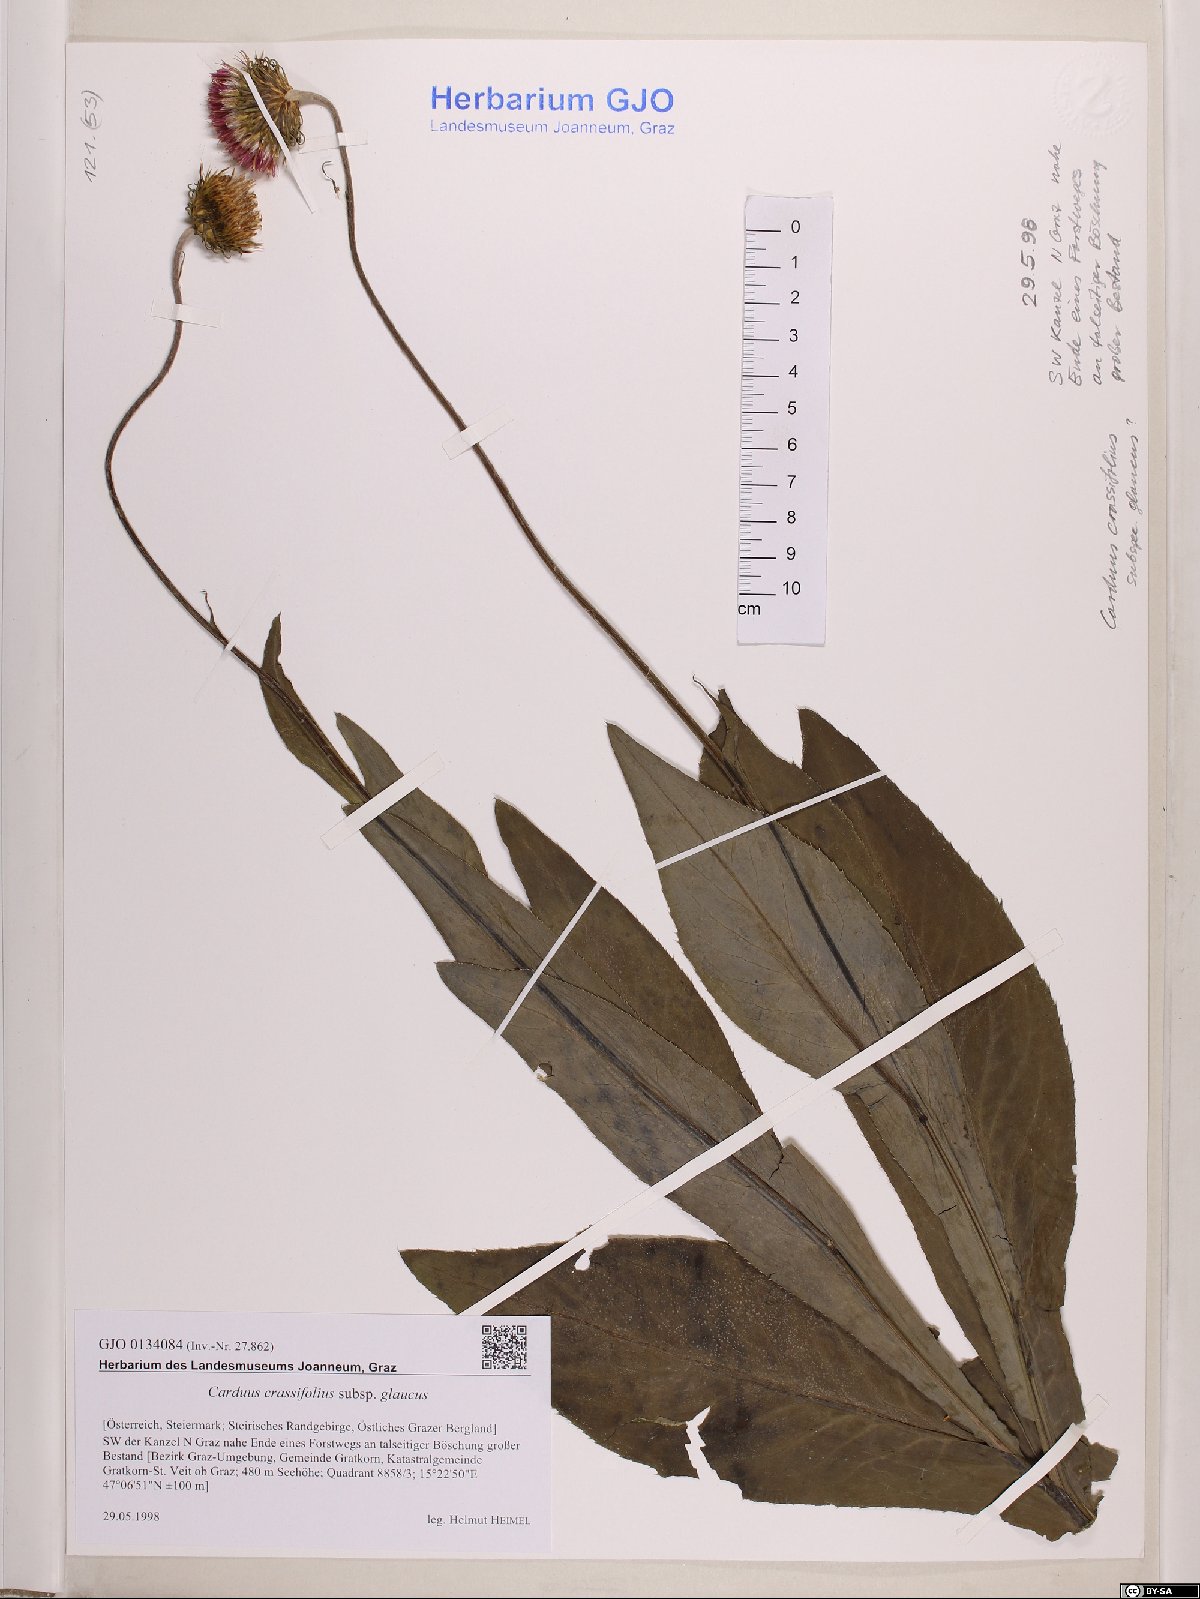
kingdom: Plantae
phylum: Tracheophyta
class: Magnoliopsida
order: Asterales
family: Asteraceae
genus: Carduus
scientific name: Carduus defloratus
